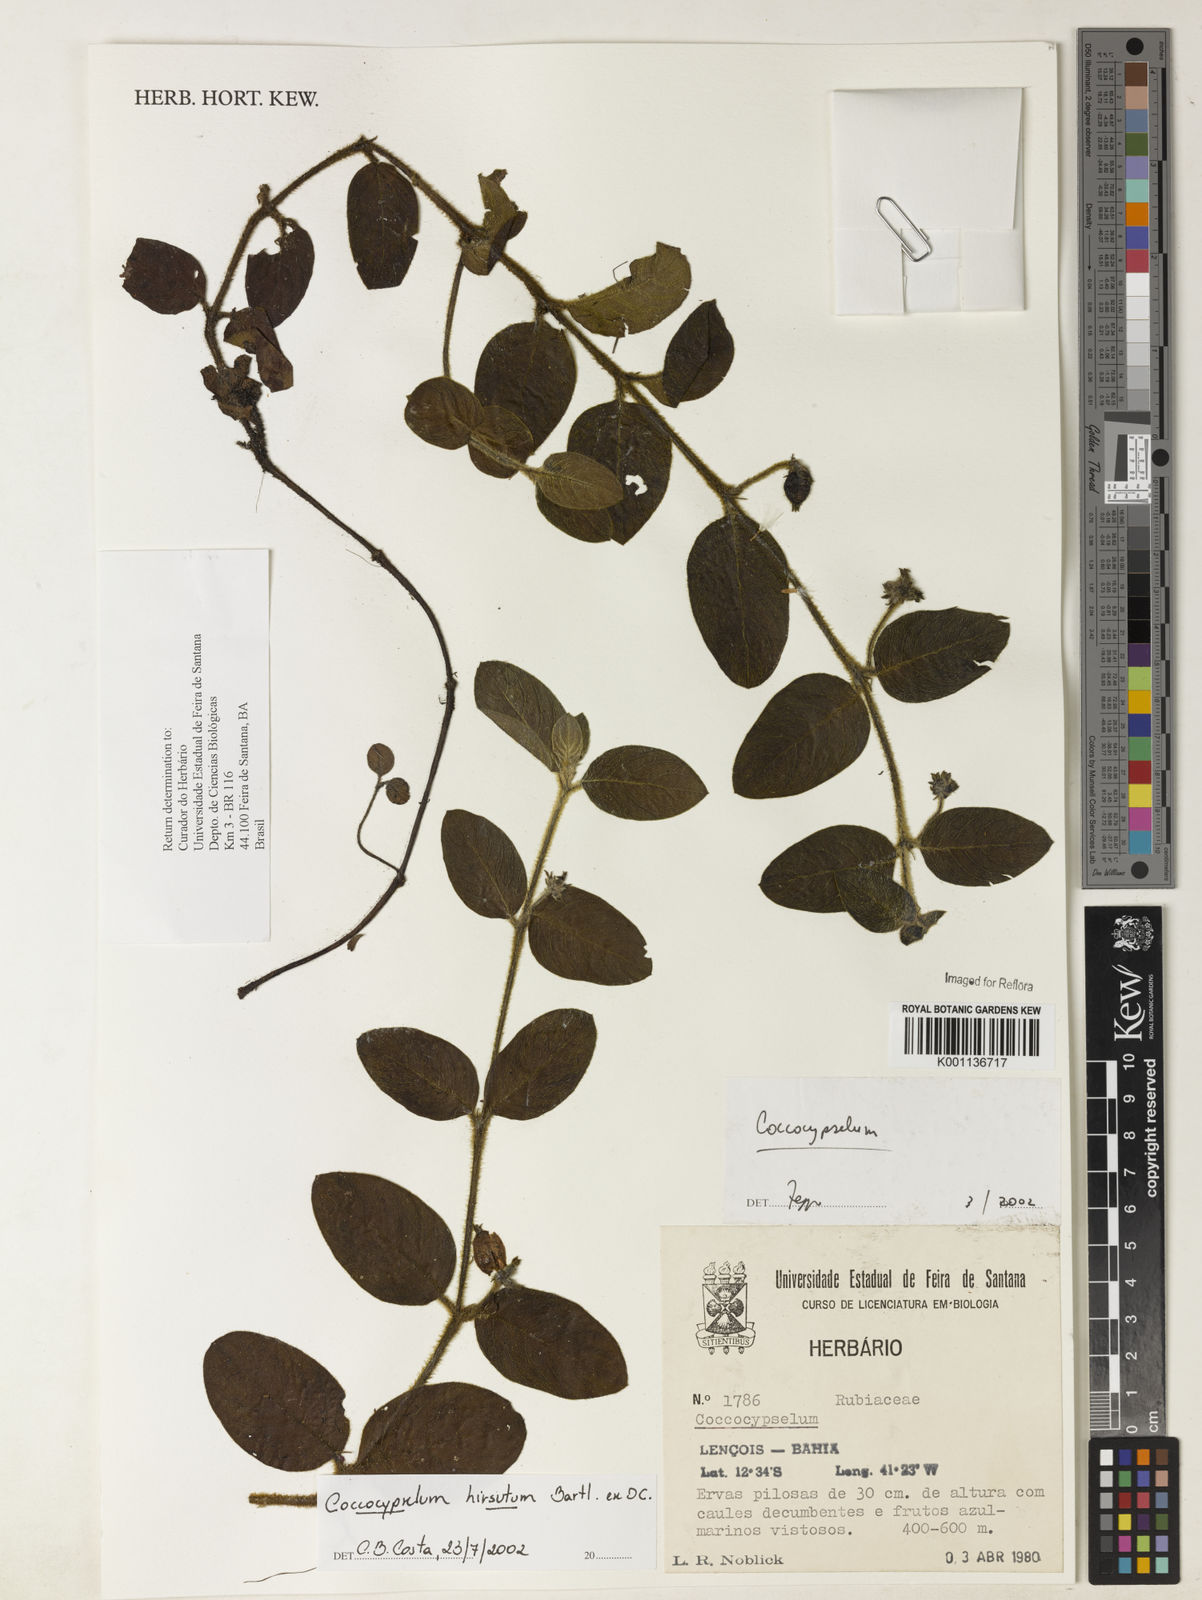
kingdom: Plantae
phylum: Tracheophyta
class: Magnoliopsida
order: Gentianales
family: Rubiaceae
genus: Coccocypselum
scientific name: Coccocypselum hirsutum
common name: Yerba de guava
